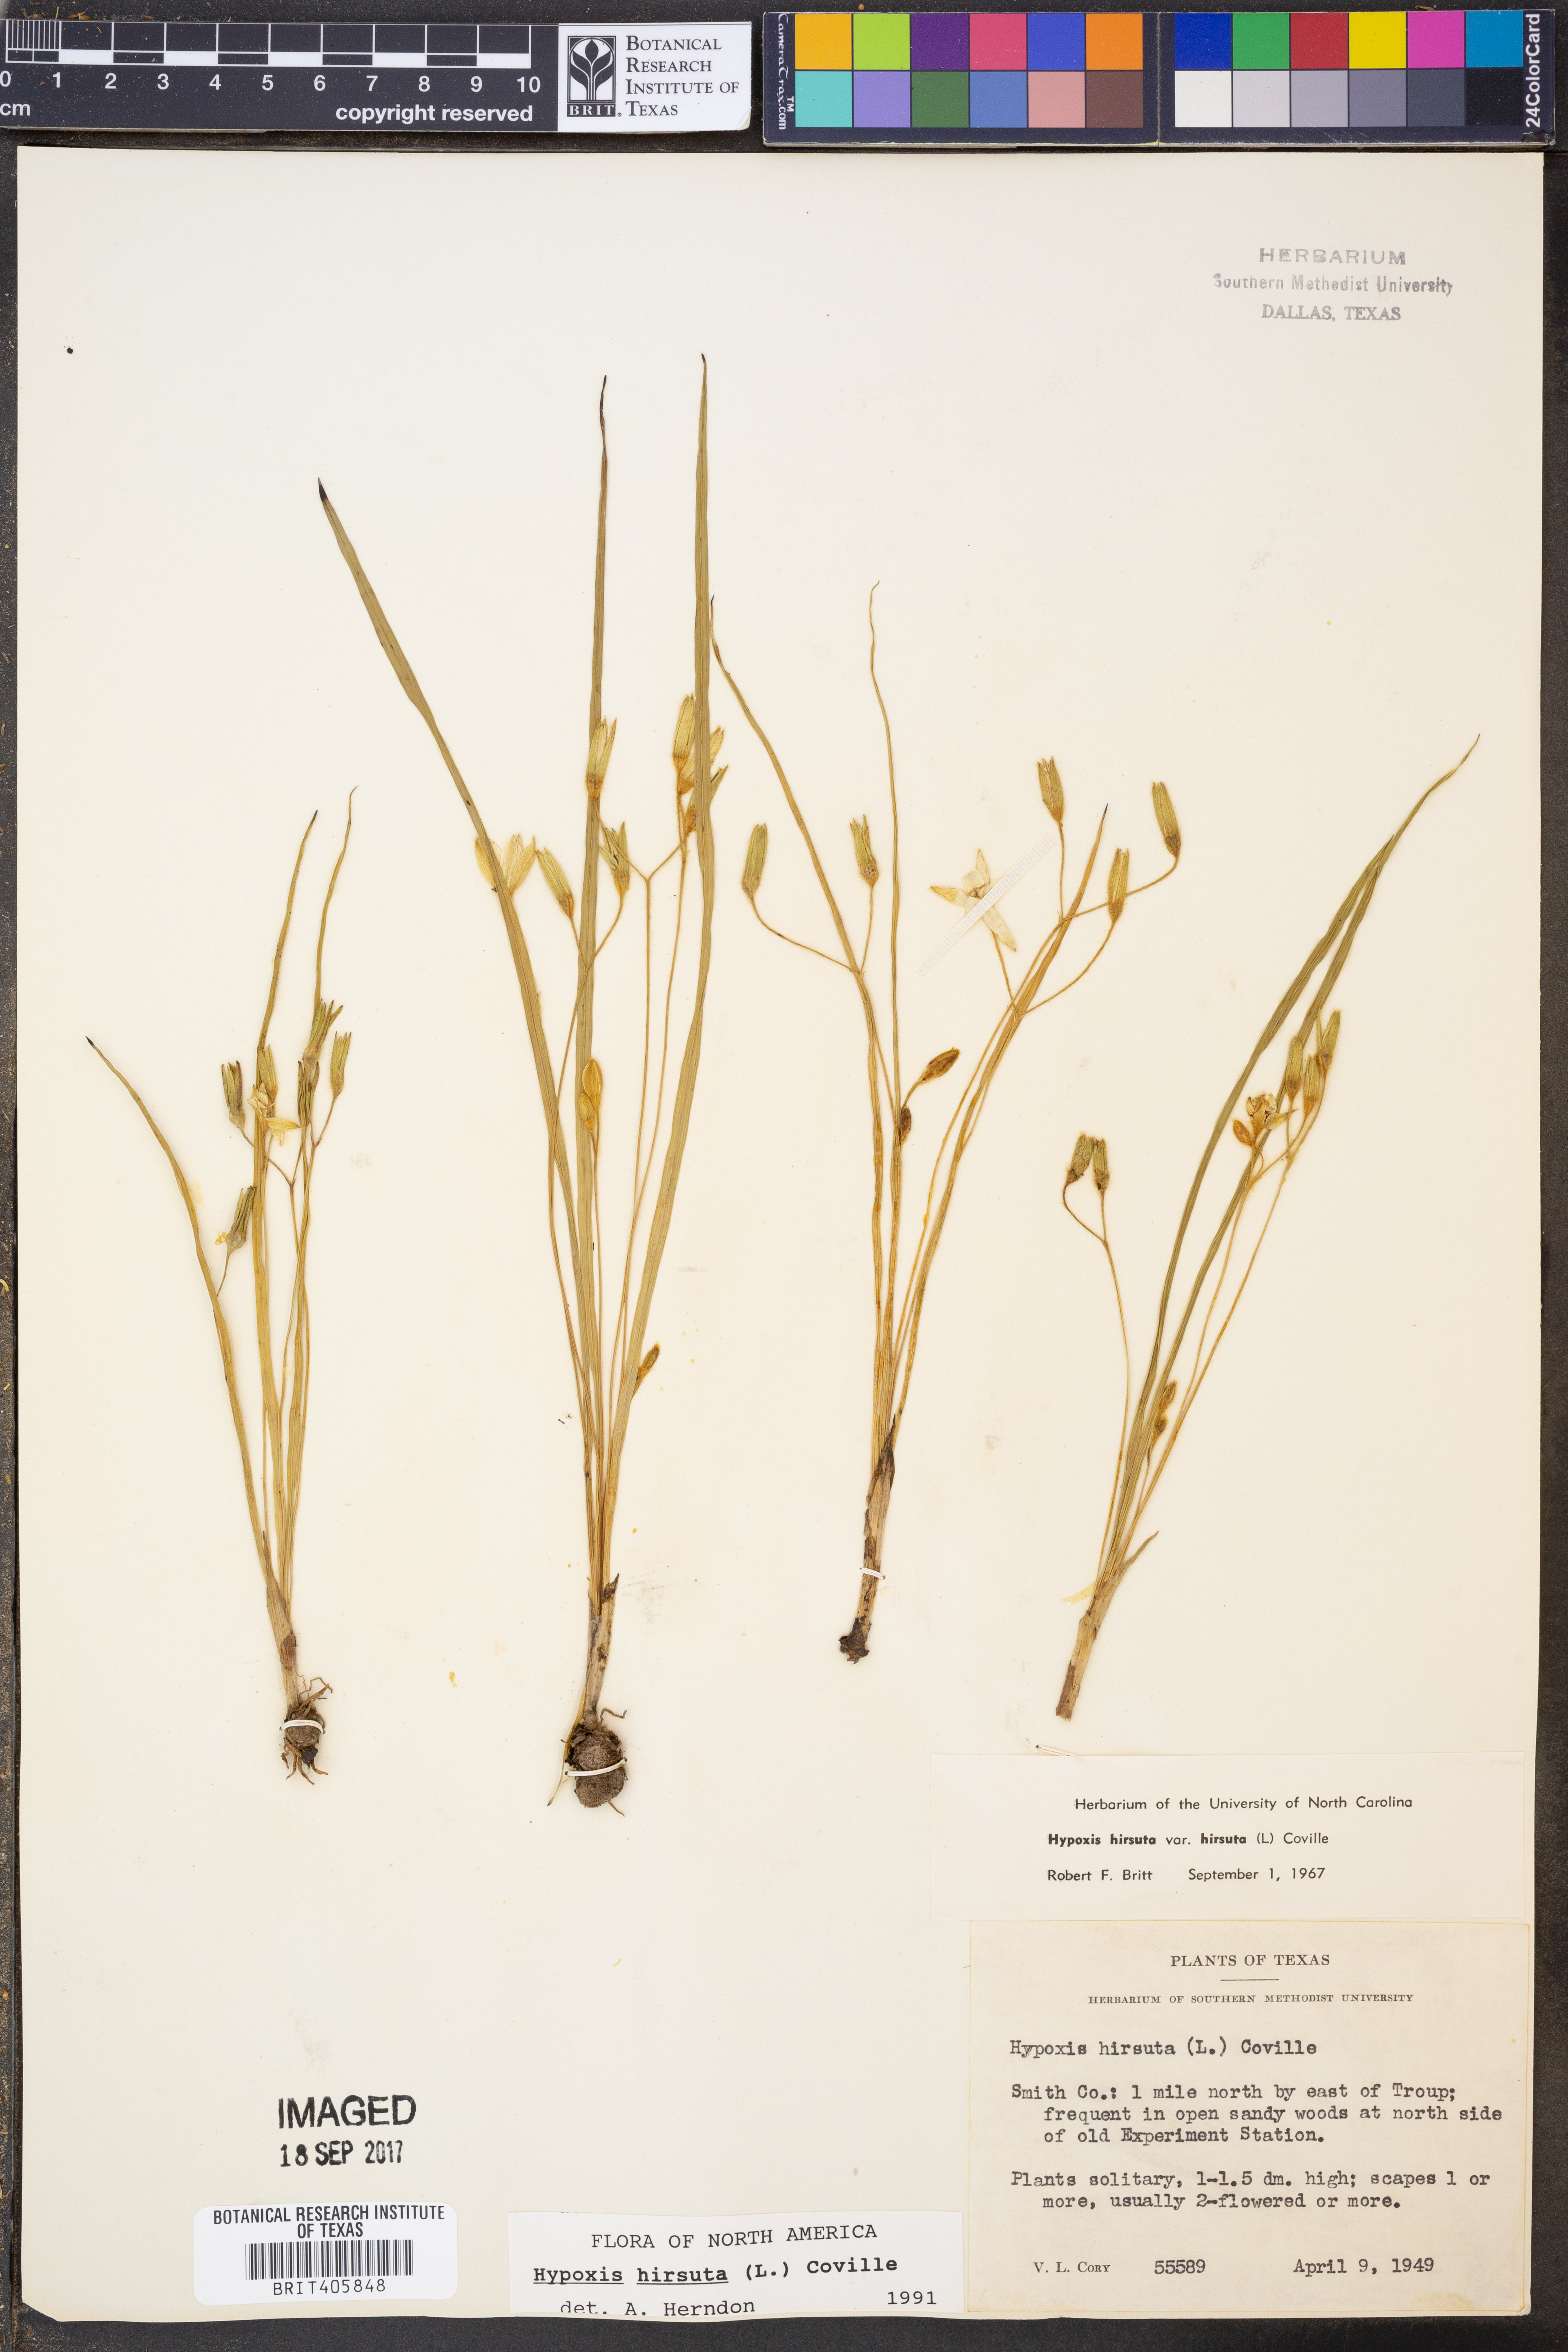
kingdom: Plantae
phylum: Tracheophyta
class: Liliopsida
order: Asparagales
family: Hypoxidaceae
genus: Hypoxis
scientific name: Hypoxis hirsuta
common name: Common goldstar
